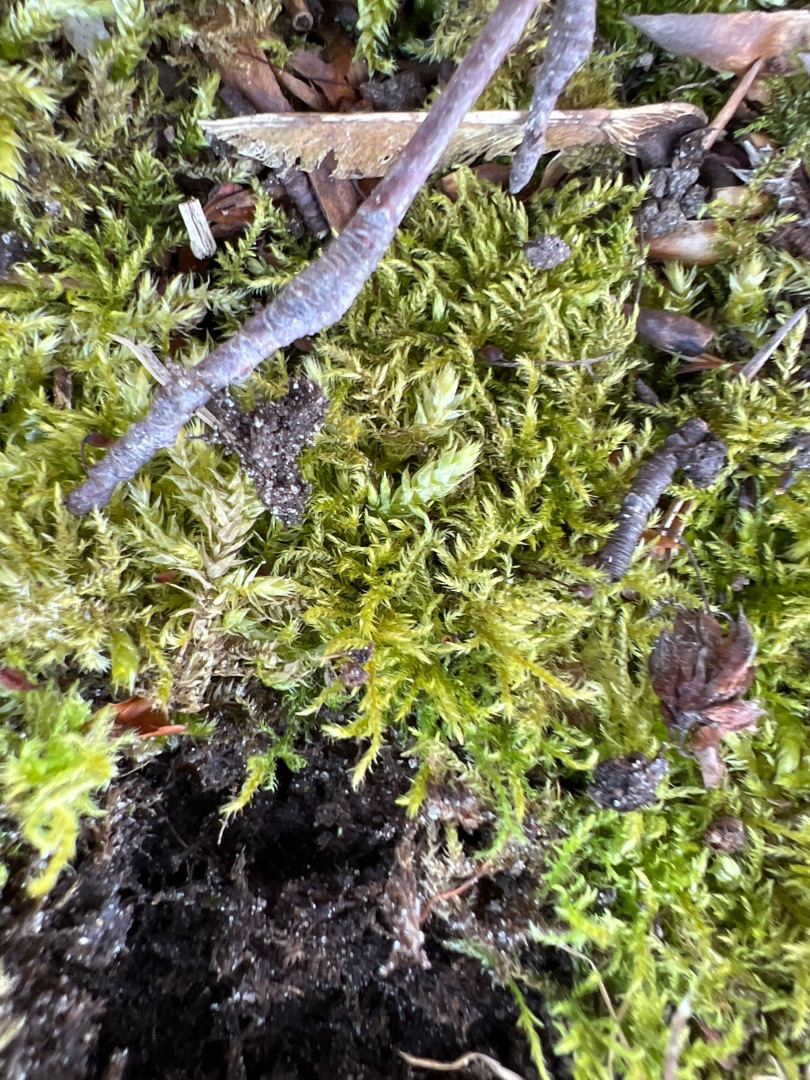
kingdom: Plantae
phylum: Bryophyta
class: Bryopsida
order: Hypnales
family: Brachytheciaceae
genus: Kindbergia
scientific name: Kindbergia praelonga
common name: Forskelligbladet vortetand
